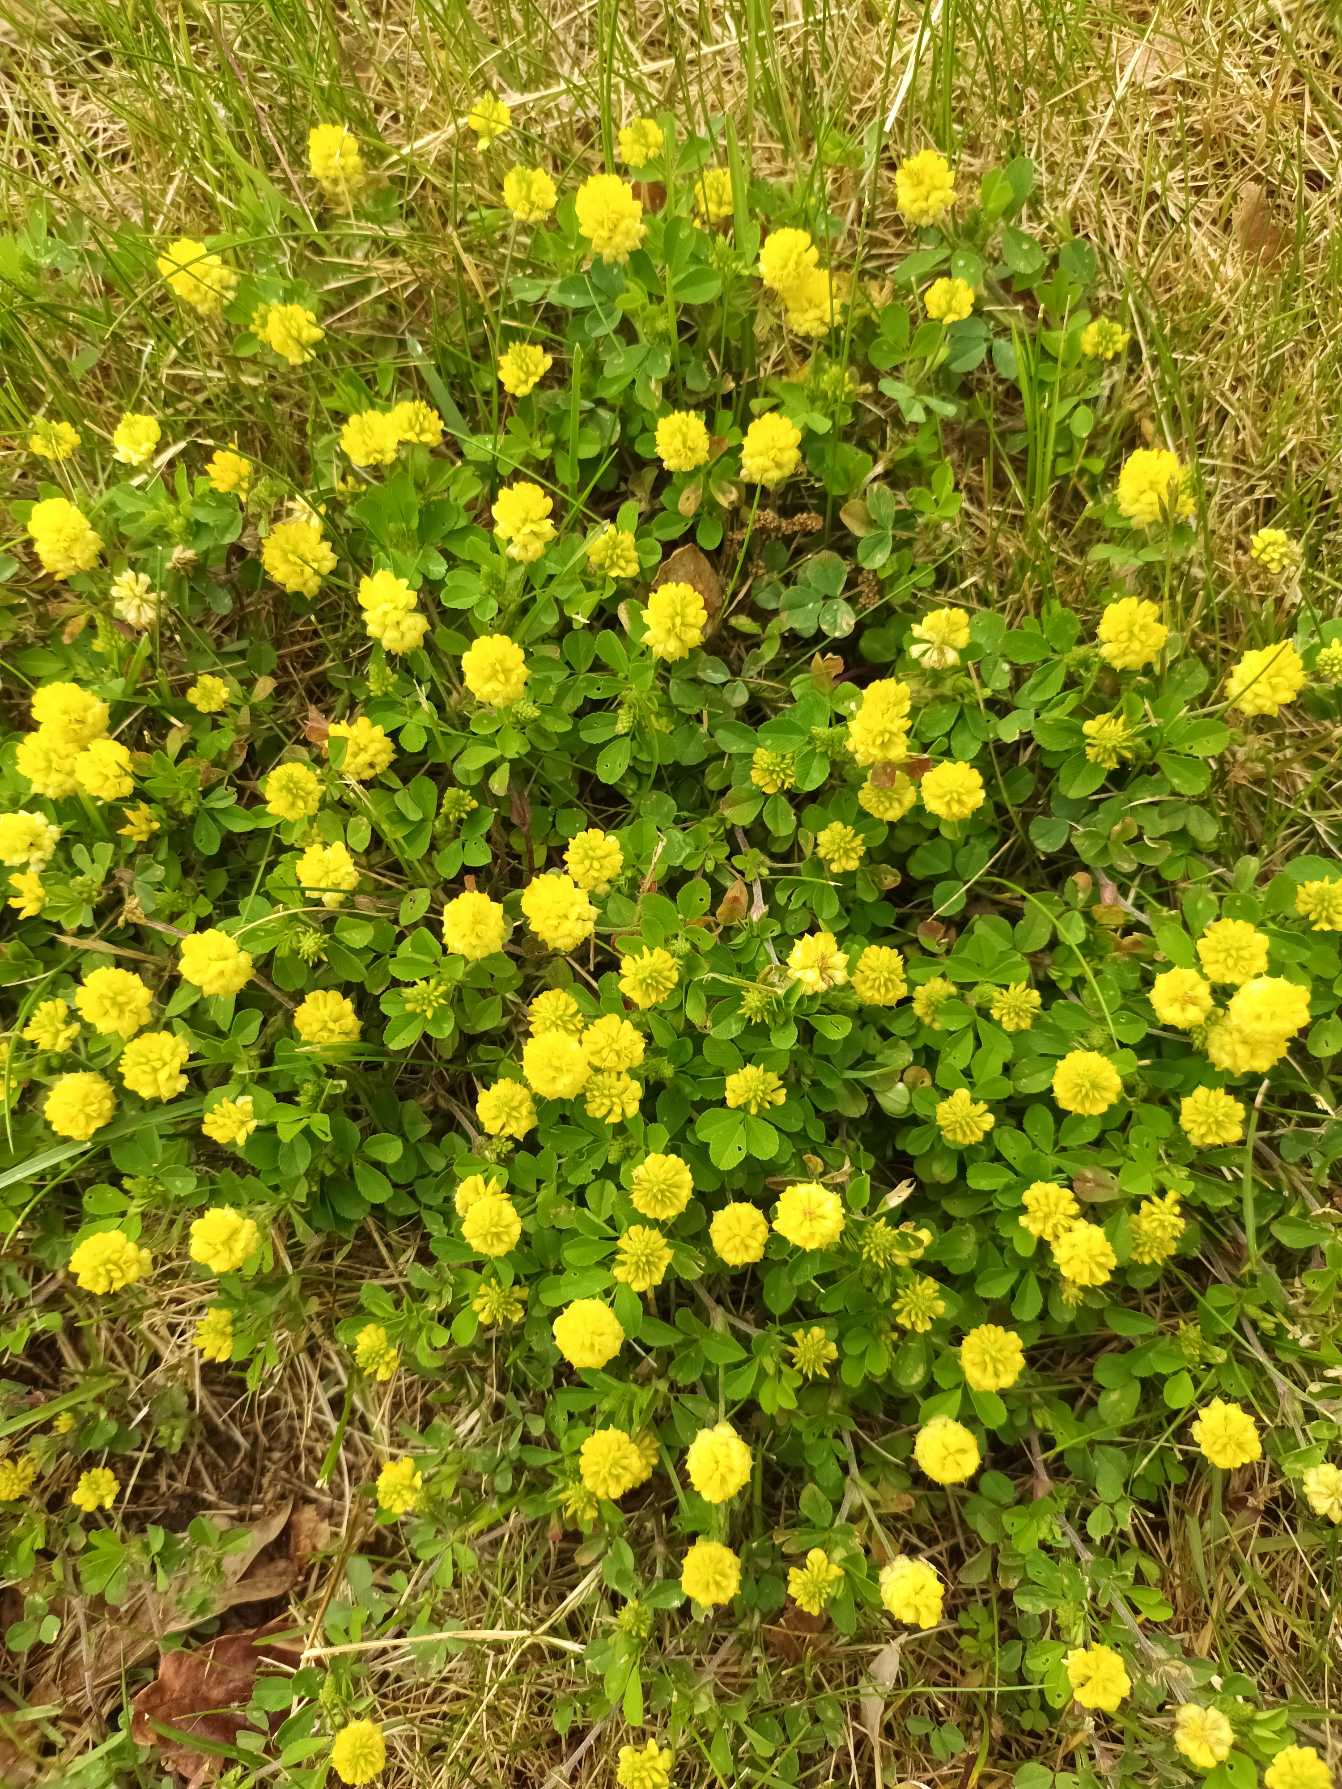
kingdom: Plantae
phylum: Tracheophyta
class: Magnoliopsida
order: Fabales
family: Fabaceae
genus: Trifolium
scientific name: Trifolium campestre
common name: Gul kløver
